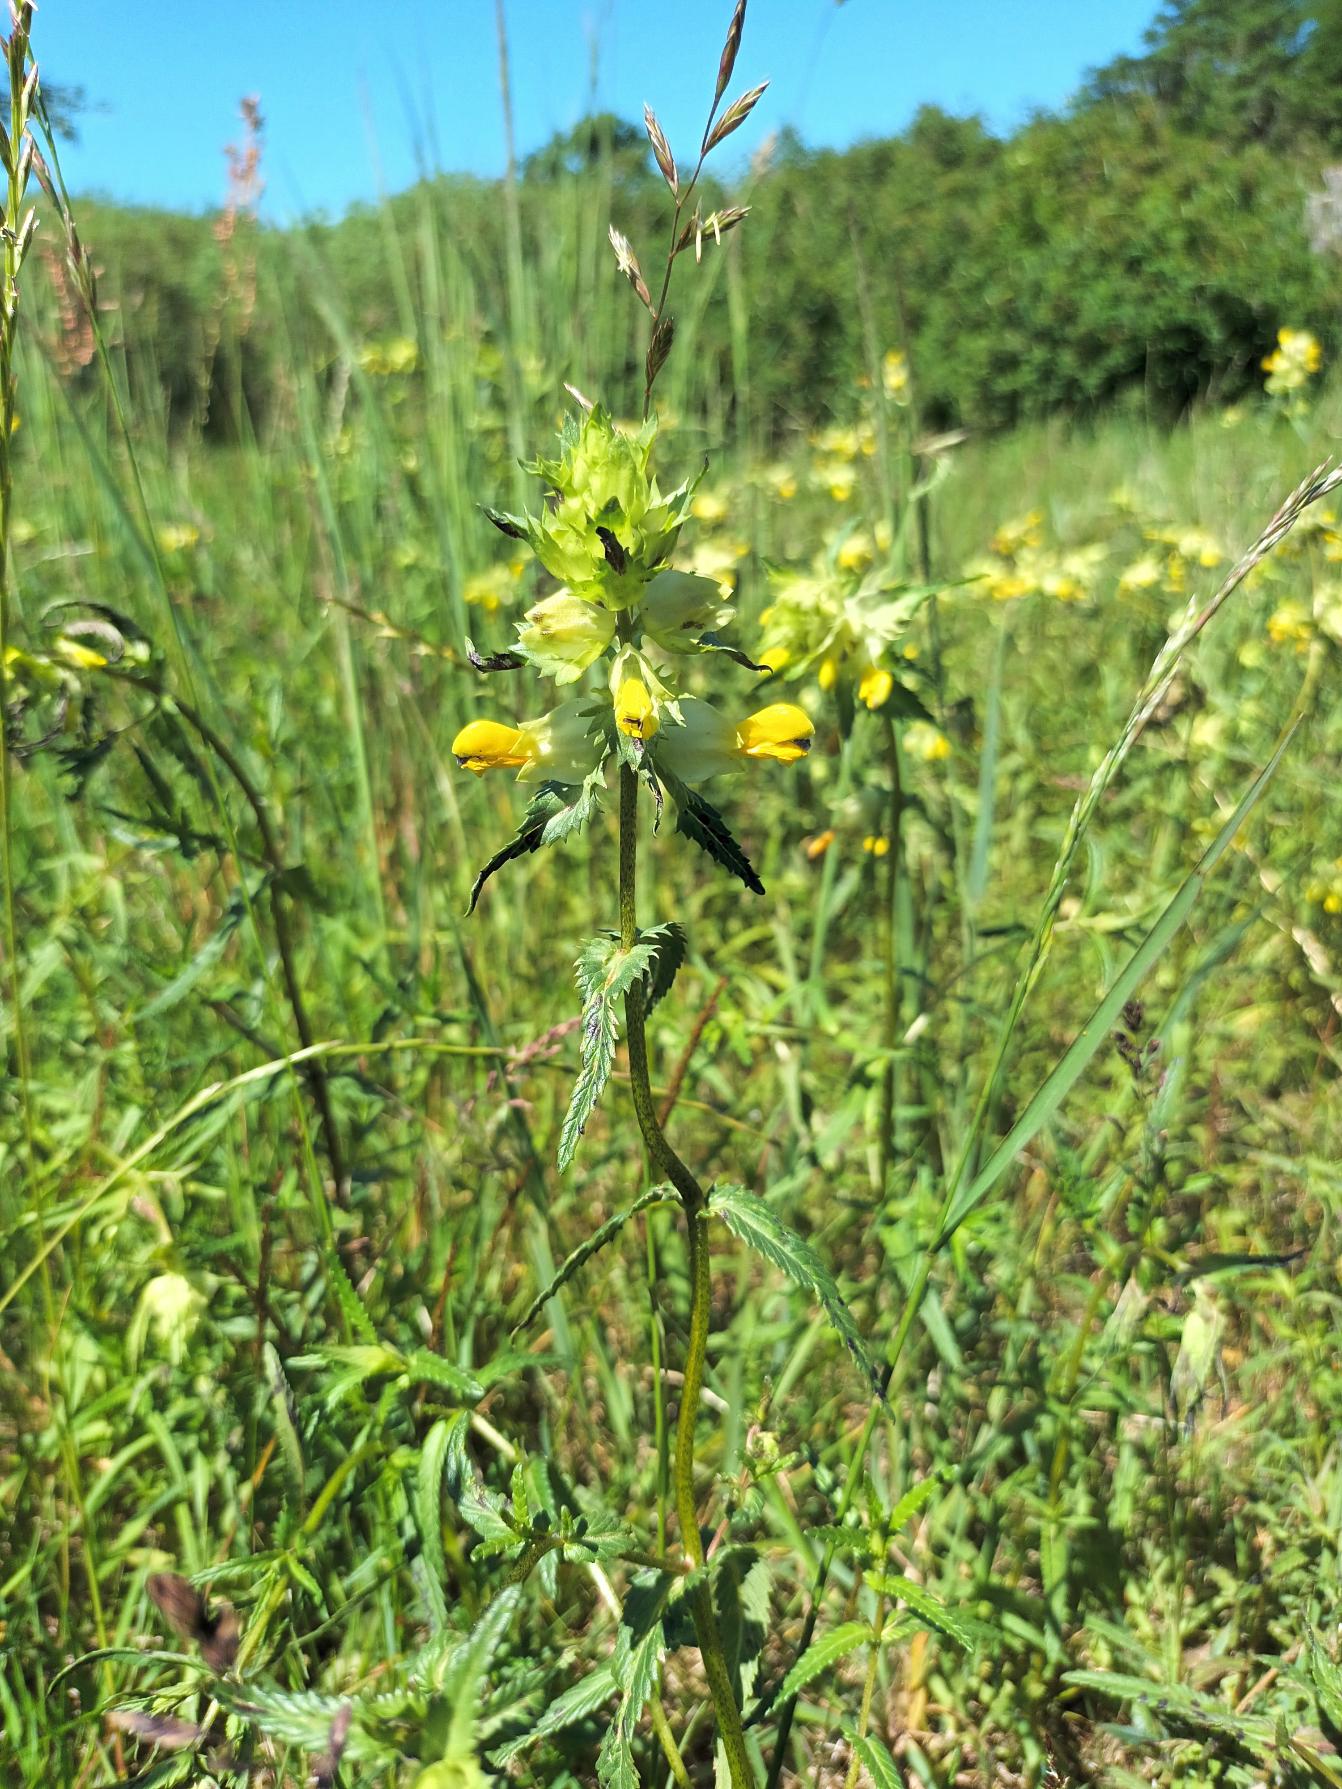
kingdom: Plantae
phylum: Tracheophyta
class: Magnoliopsida
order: Lamiales
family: Orobanchaceae
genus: Rhinanthus
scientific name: Rhinanthus
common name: Stor skjaller
